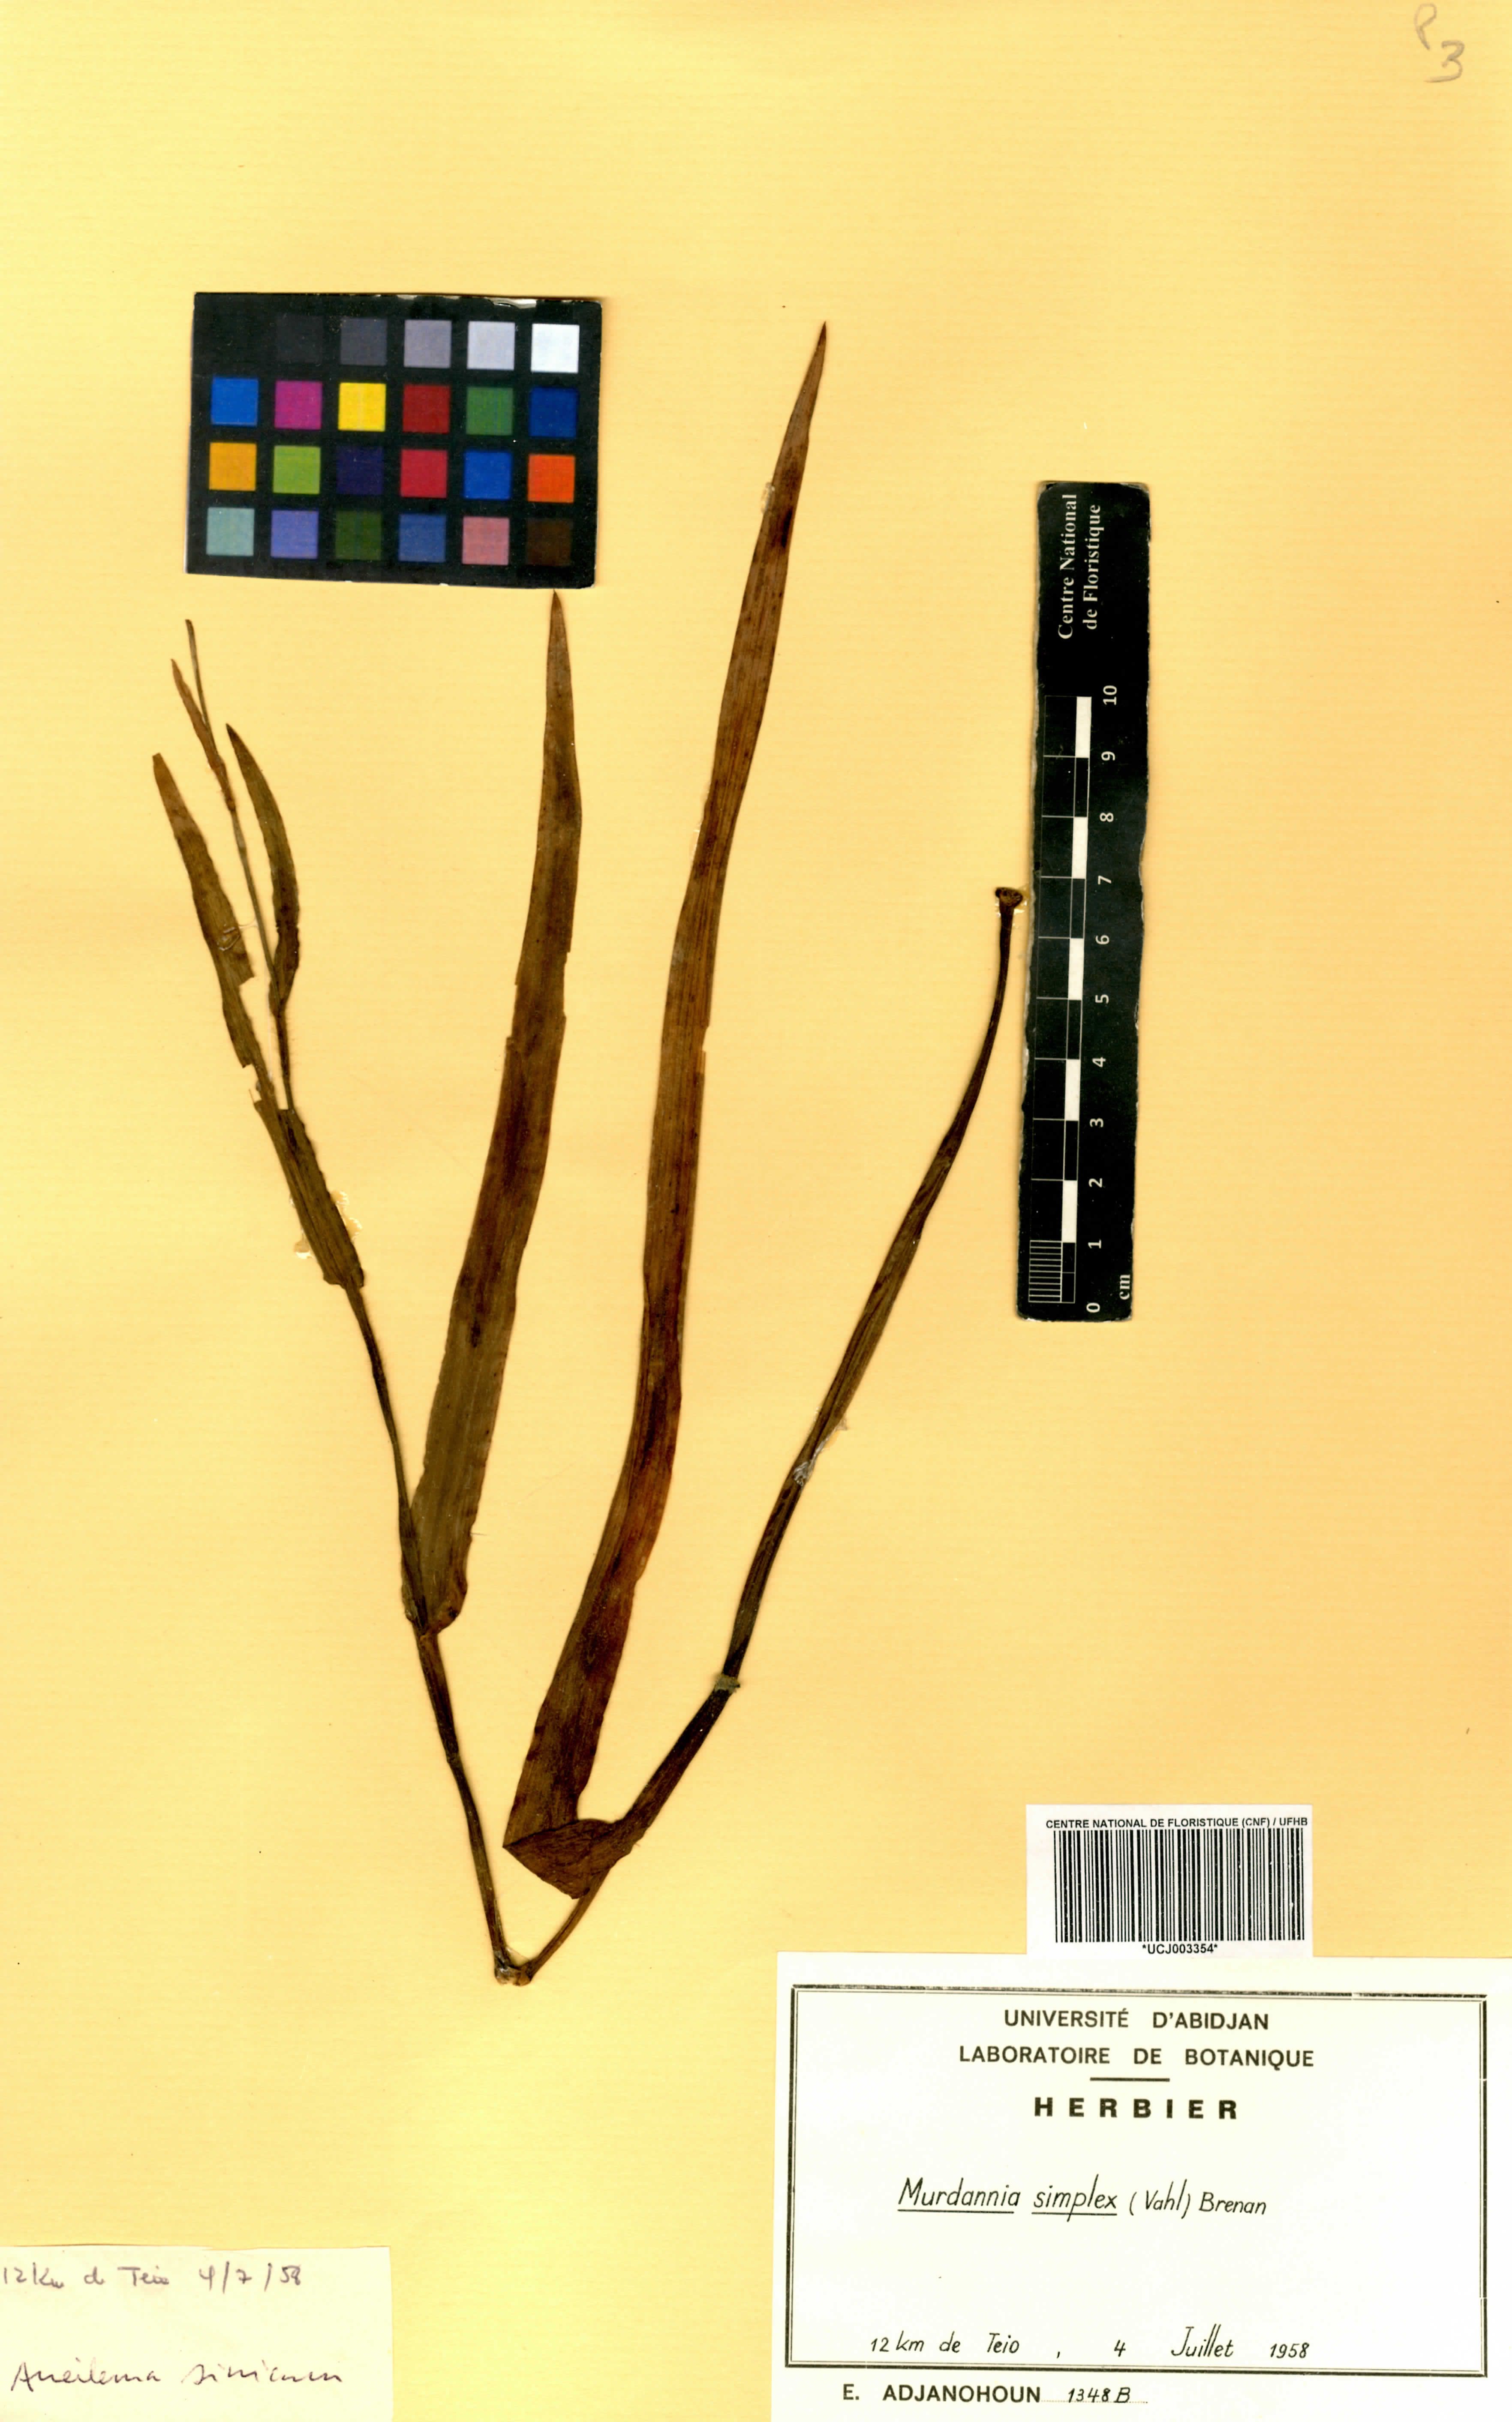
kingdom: Plantae
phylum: Tracheophyta
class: Liliopsida
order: Commelinales
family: Commelinaceae
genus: Murdannia
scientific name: Murdannia simplex
